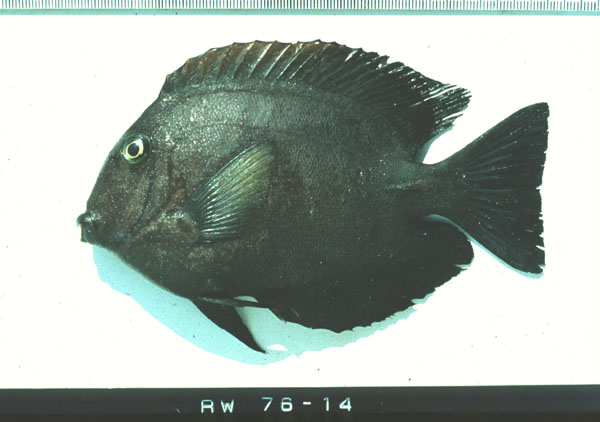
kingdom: Animalia
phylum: Chordata
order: Perciformes
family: Acanthuridae
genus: Acanthurus
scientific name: Acanthurus leucosternon
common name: Blue surgeonfish
